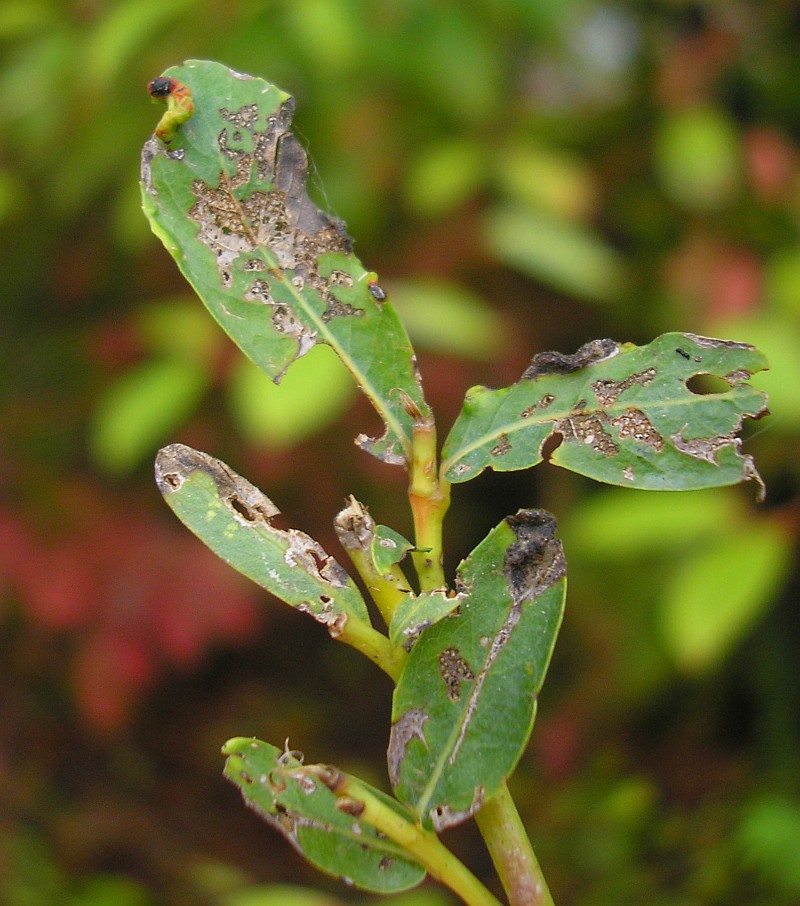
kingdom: Animalia
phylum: Arthropoda
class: Arachnida
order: Trombidiformes
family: Eriophyidae
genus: Aculus
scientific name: Aculus magnirostris
